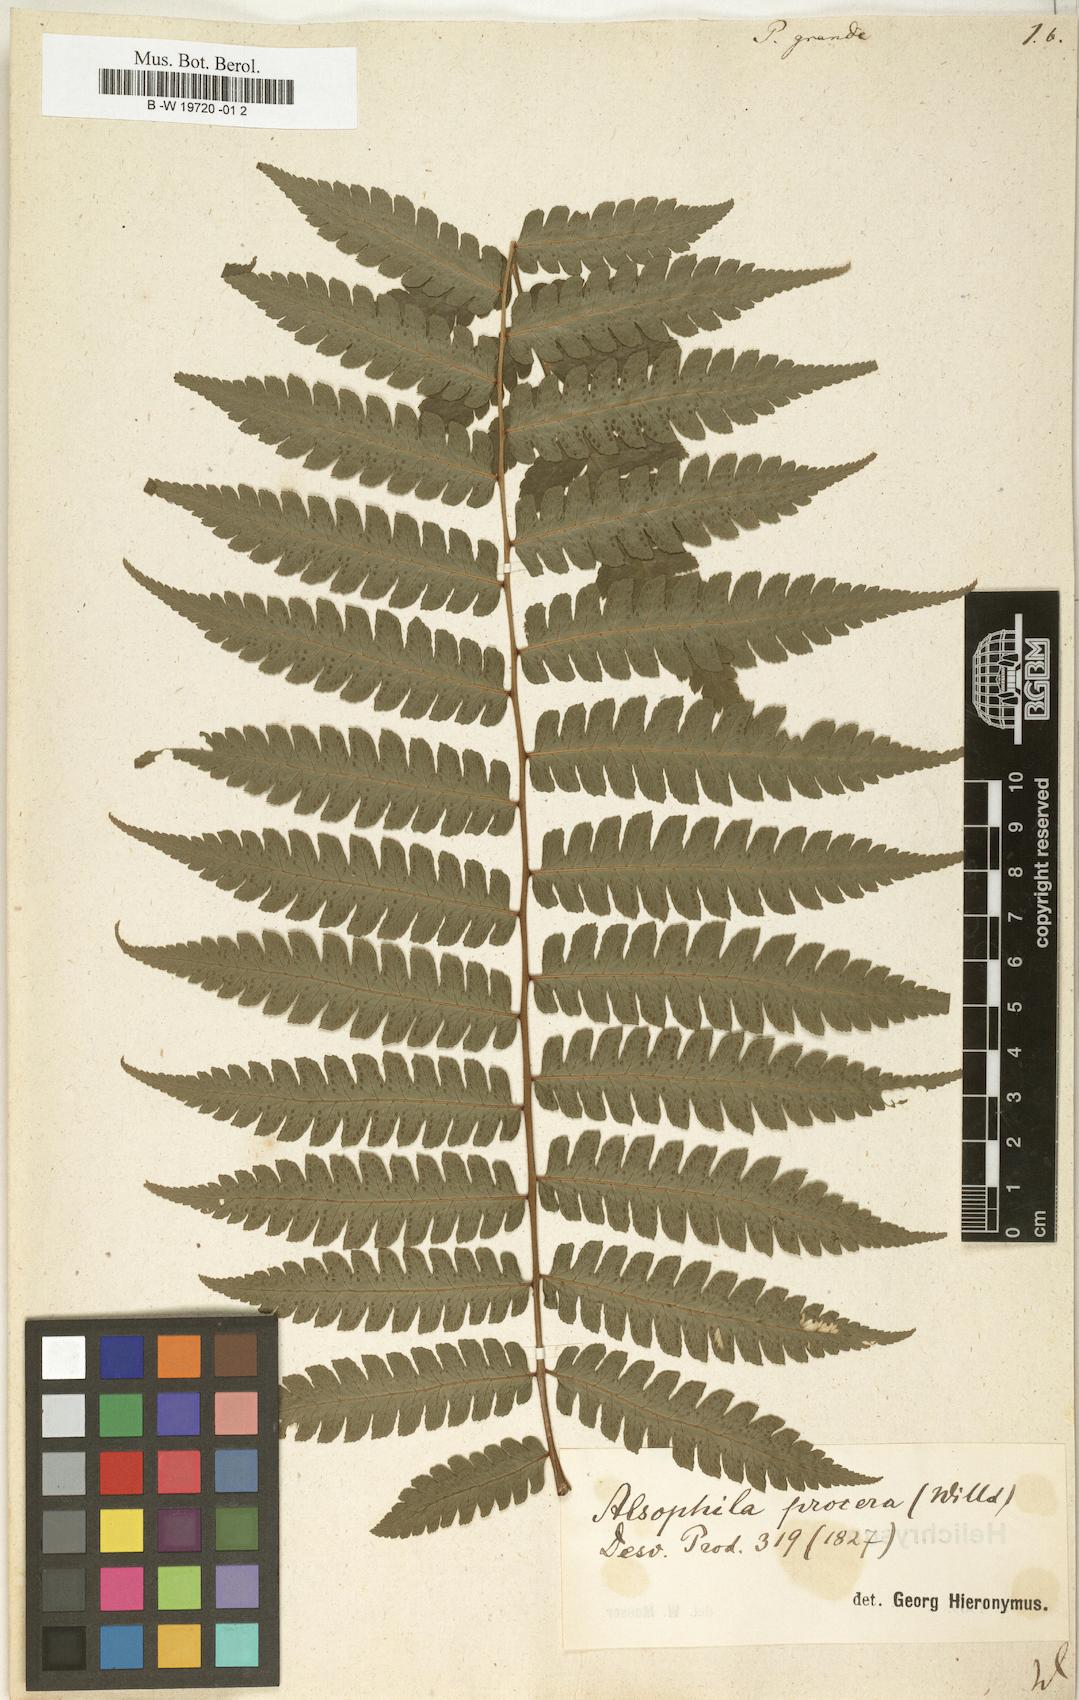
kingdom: Plantae
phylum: Tracheophyta
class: Polypodiopsida
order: Polypodiales
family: Dryopteridaceae
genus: Megalastrum
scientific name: Megalastrum grande
